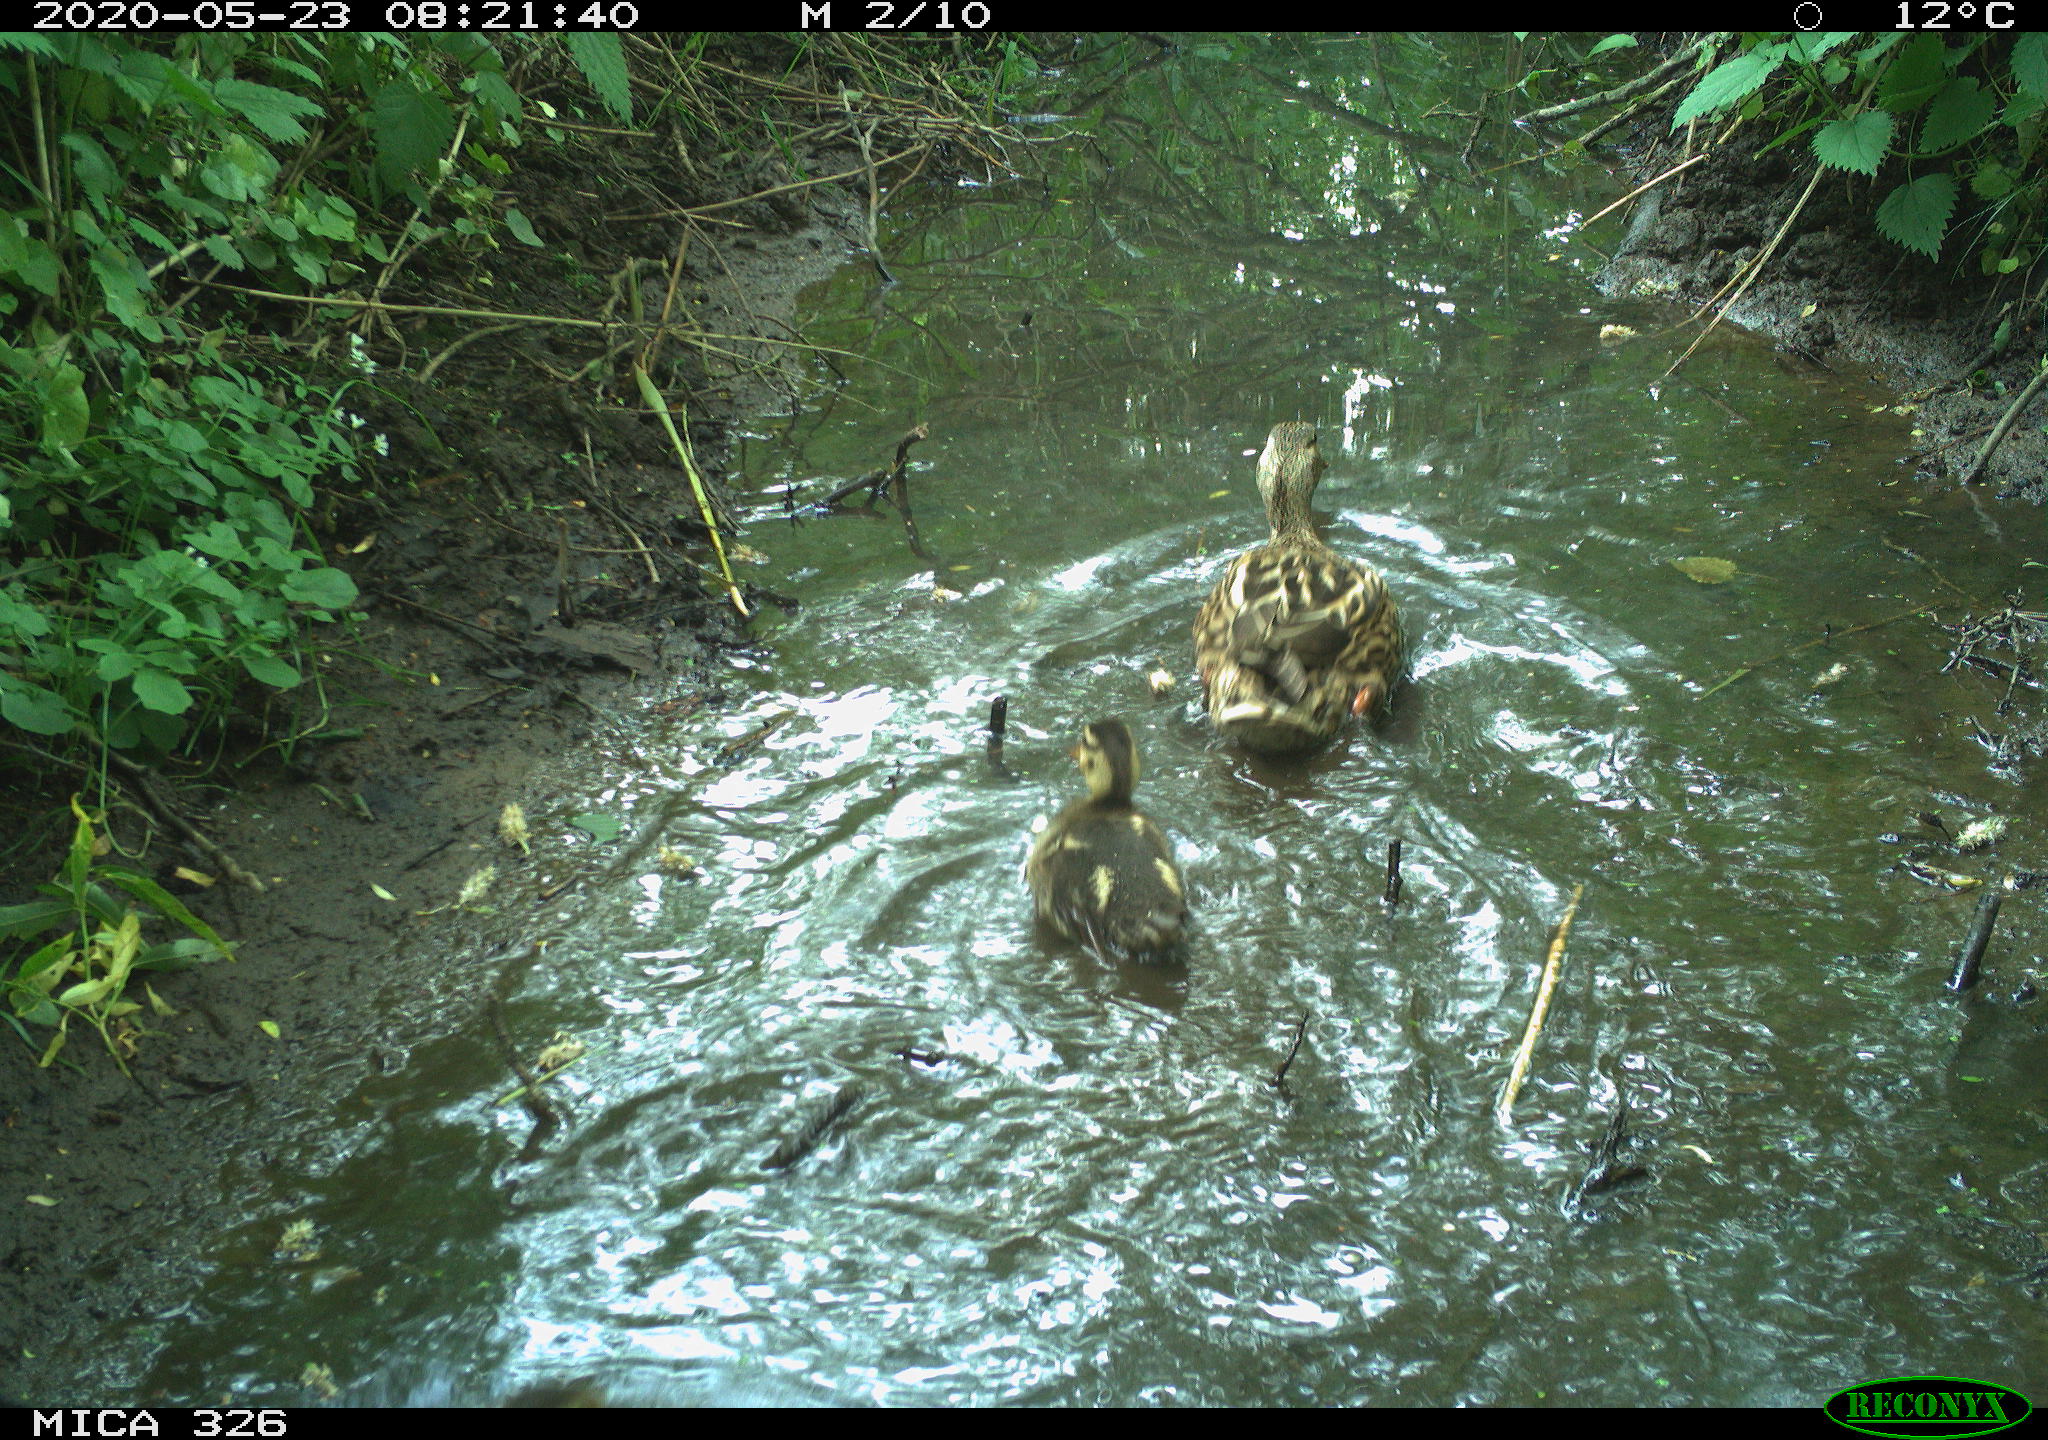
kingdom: Animalia
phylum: Chordata
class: Aves
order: Anseriformes
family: Anatidae
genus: Anas
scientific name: Anas platyrhynchos
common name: Mallard
